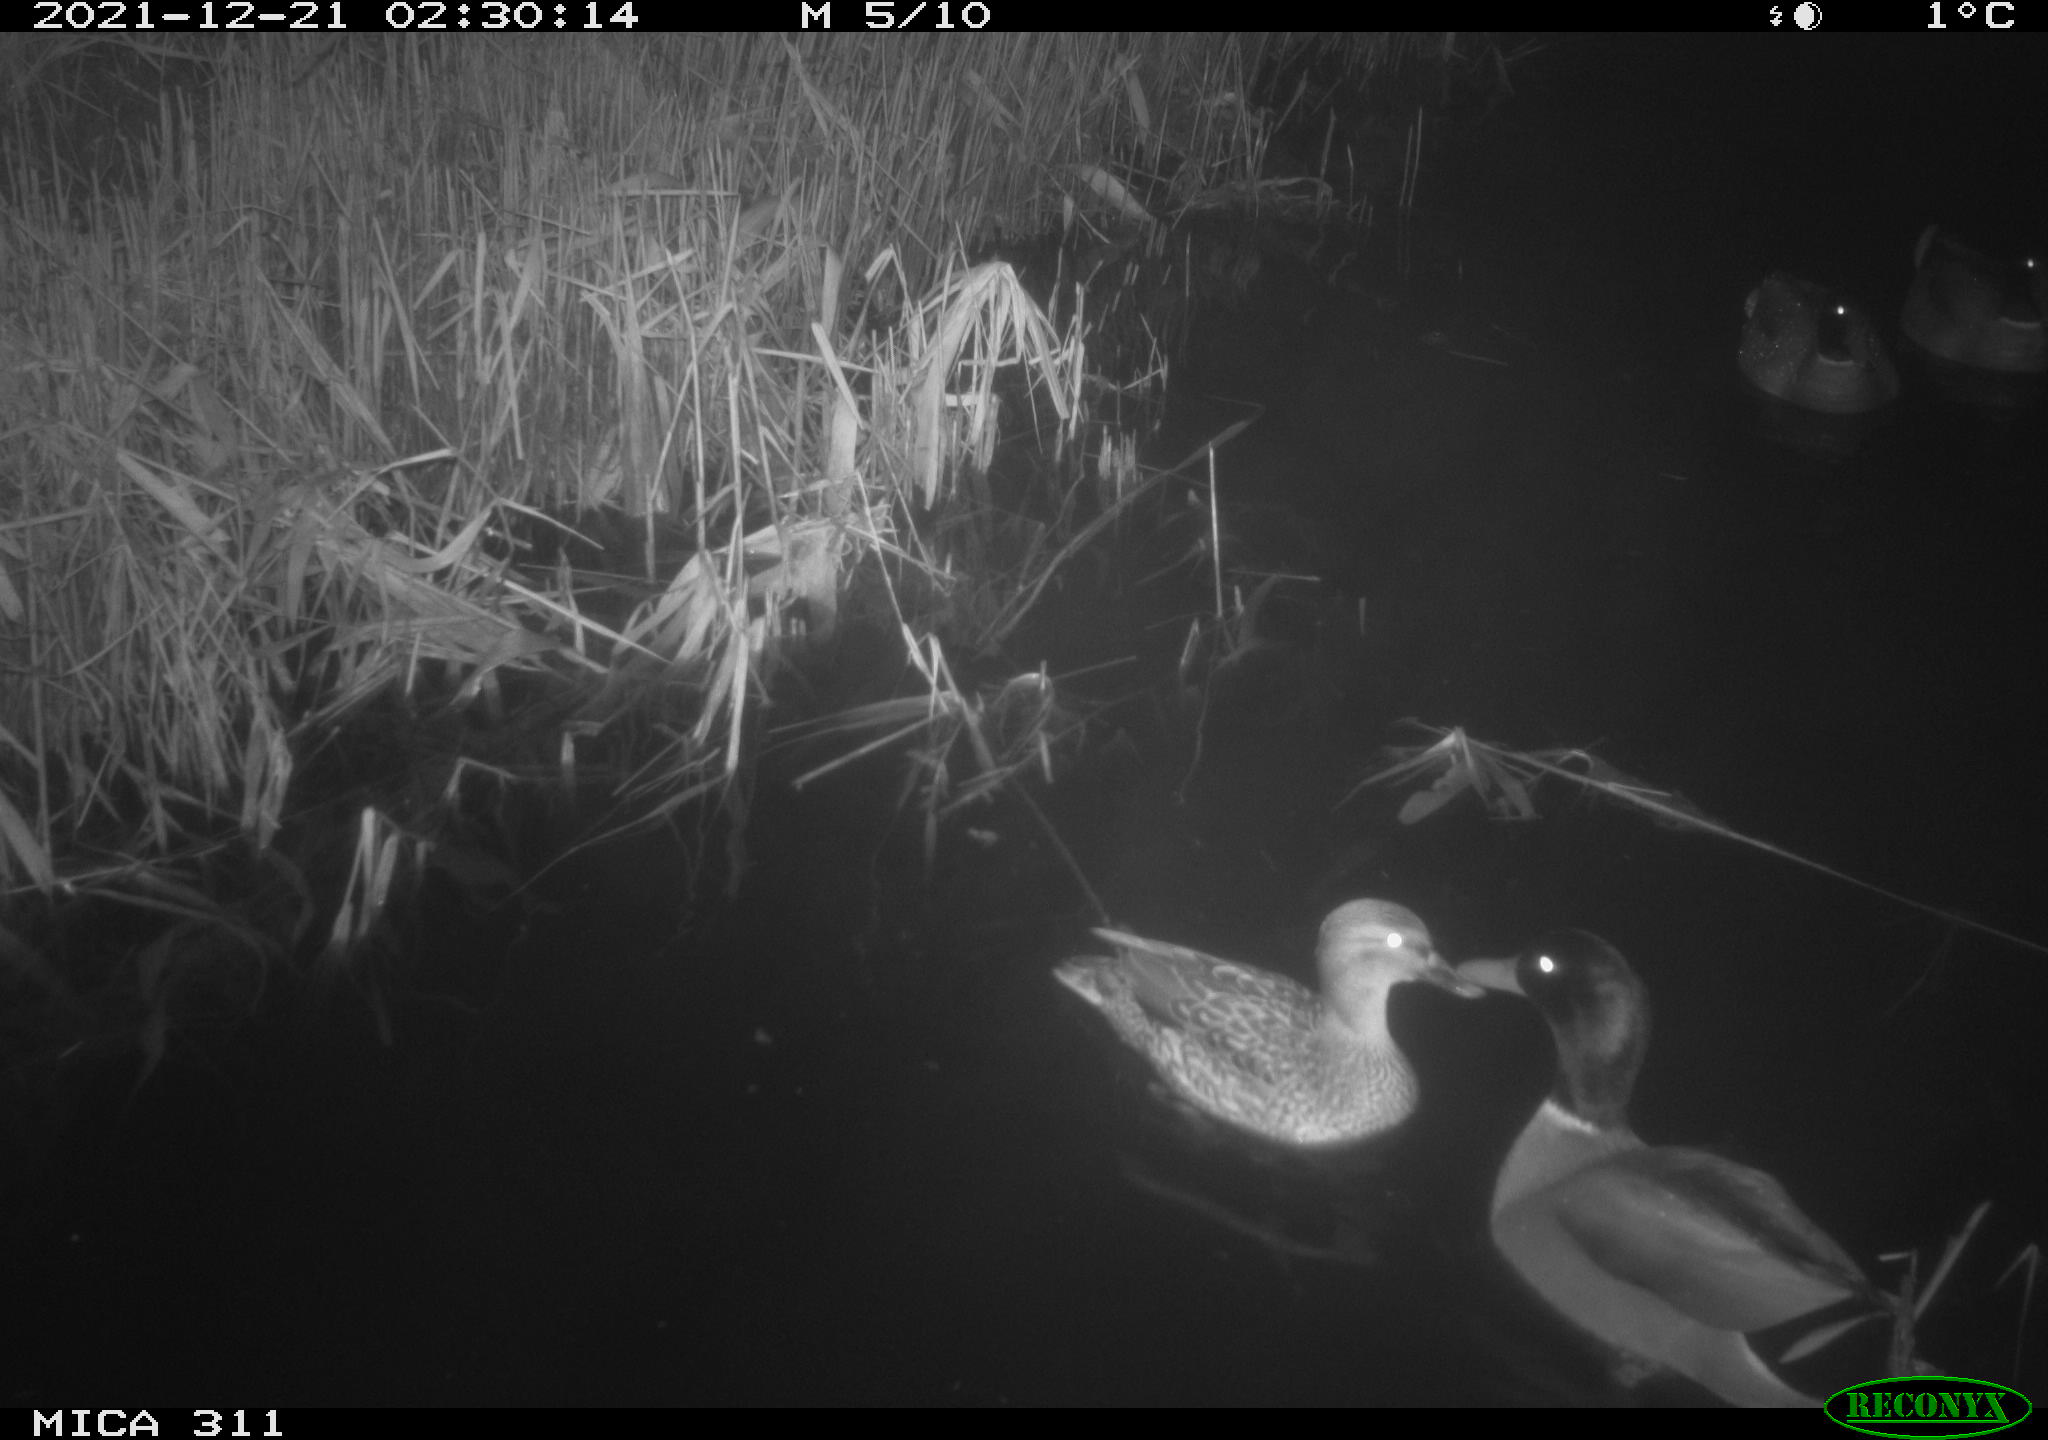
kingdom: Animalia
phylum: Chordata
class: Aves
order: Anseriformes
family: Anatidae
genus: Anas
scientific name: Anas platyrhynchos
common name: Mallard
